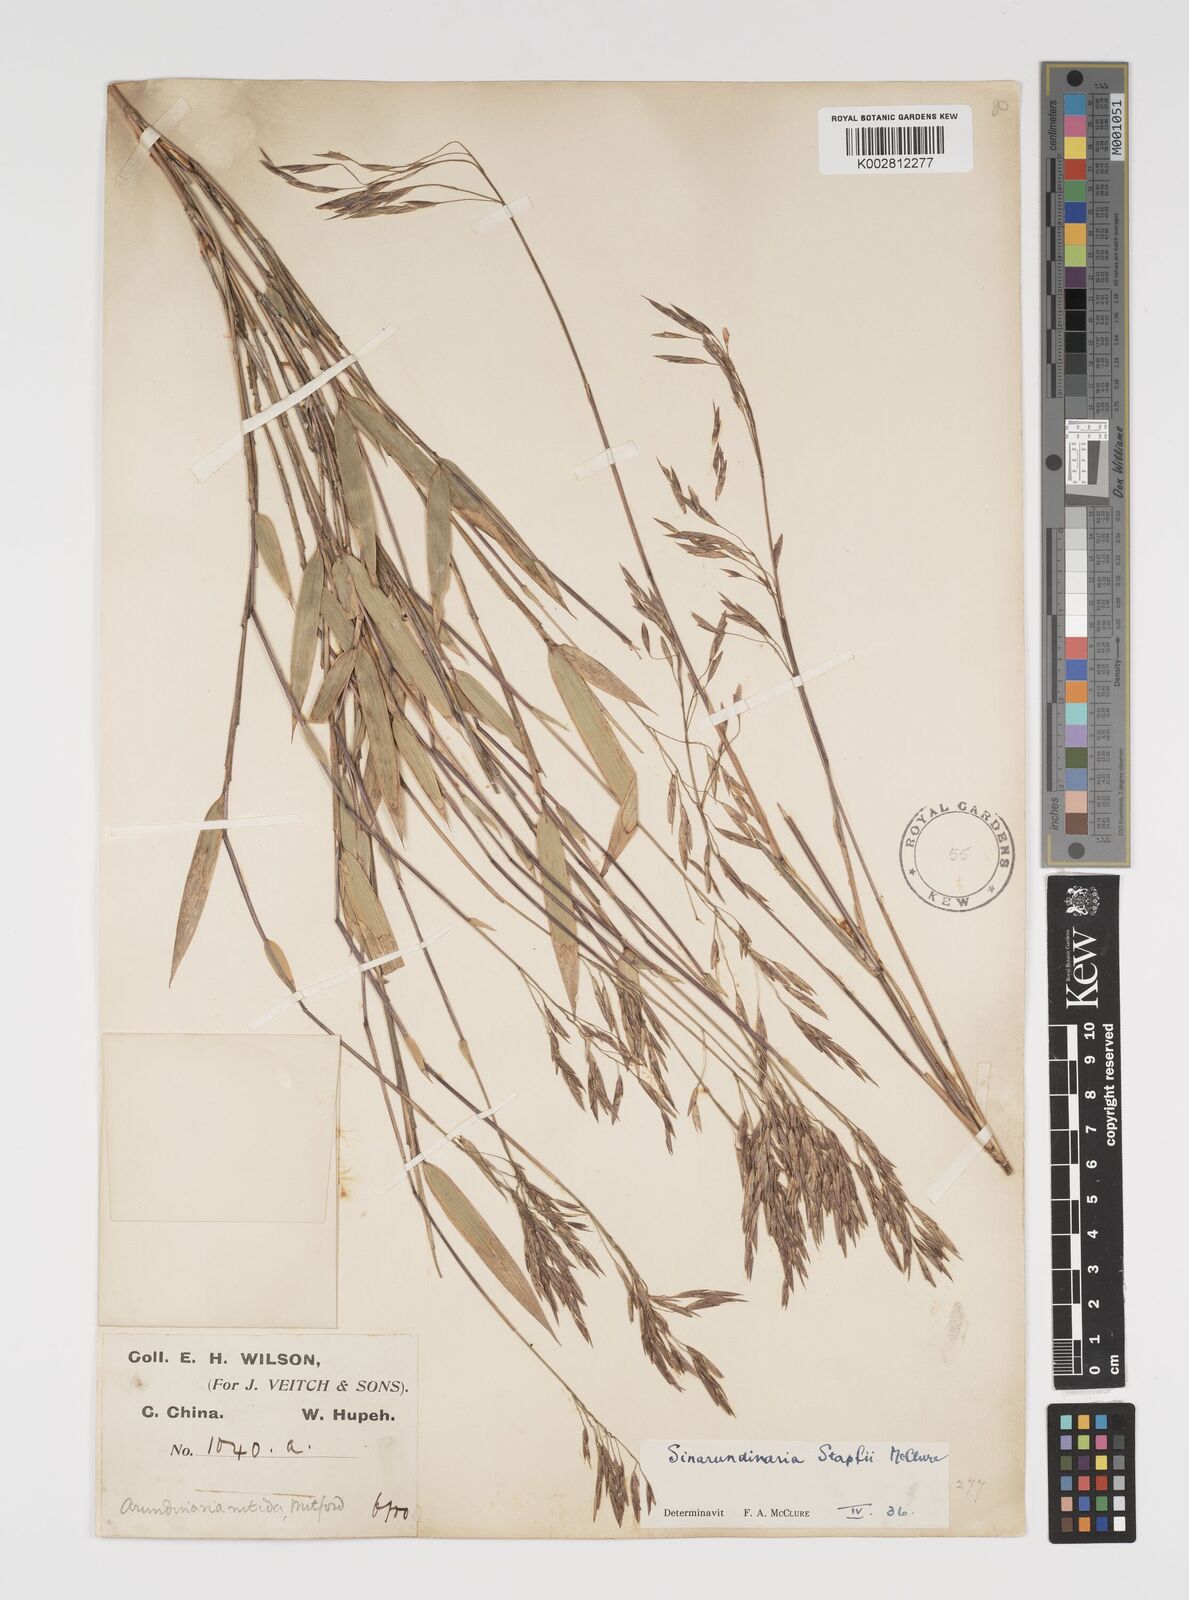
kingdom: Plantae
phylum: Tracheophyta
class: Liliopsida
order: Poales
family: Poaceae
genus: Yushania
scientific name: Yushania confusa
